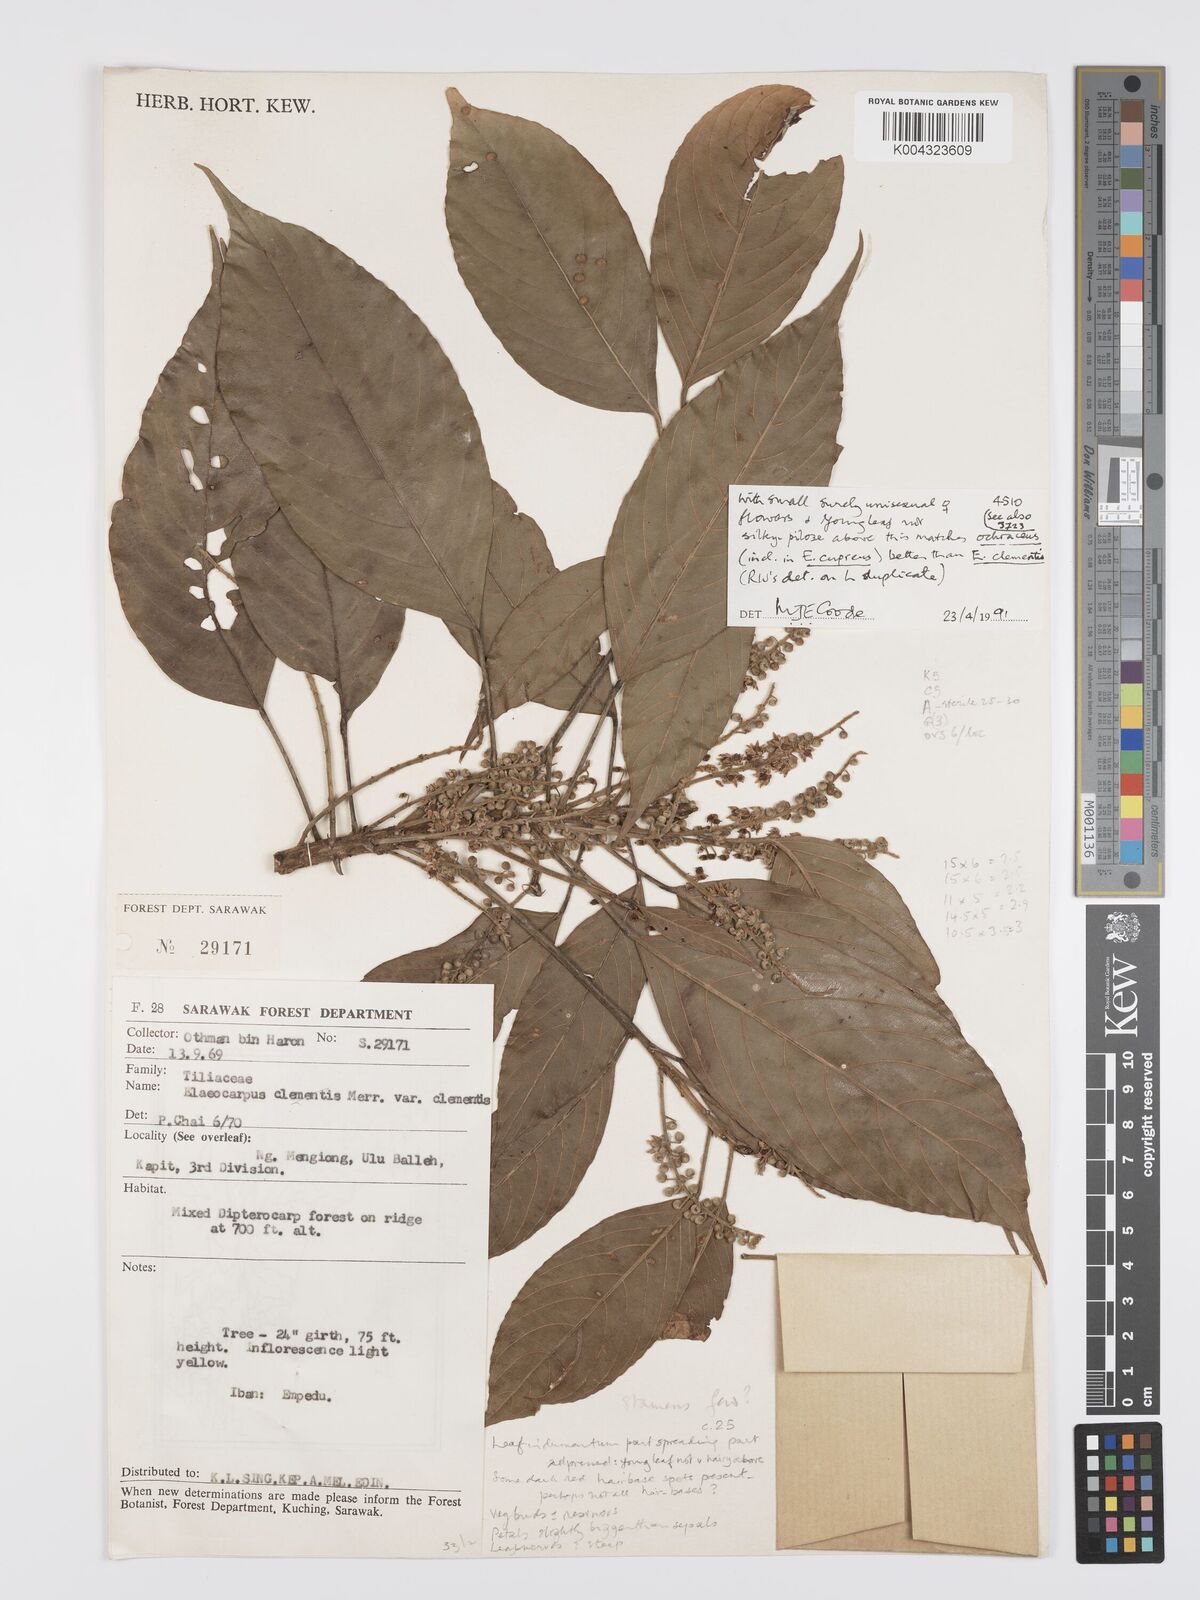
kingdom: Plantae
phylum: Tracheophyta
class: Magnoliopsida
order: Oxalidales
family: Elaeocarpaceae
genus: Elaeocarpus
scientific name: Elaeocarpus cupreus
